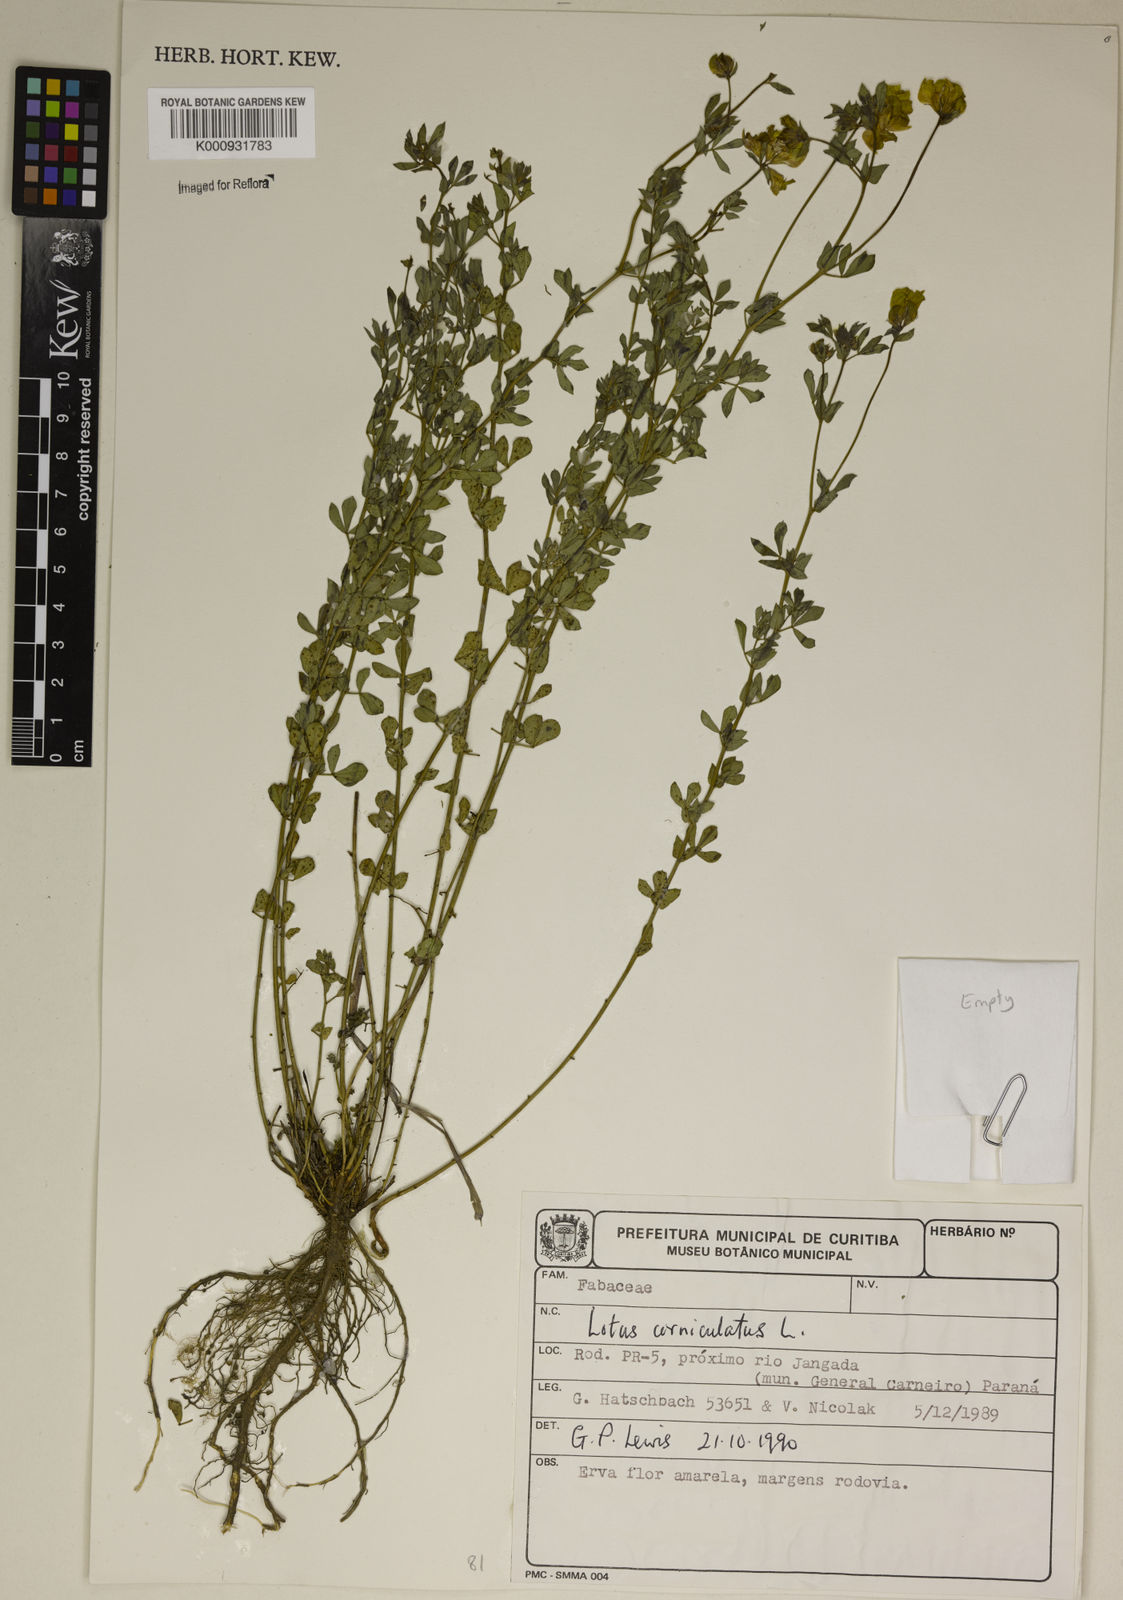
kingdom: Plantae
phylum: Tracheophyta
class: Magnoliopsida
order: Fabales
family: Fabaceae
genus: Lotus
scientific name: Lotus corniculatus
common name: Common bird's-foot-trefoil
